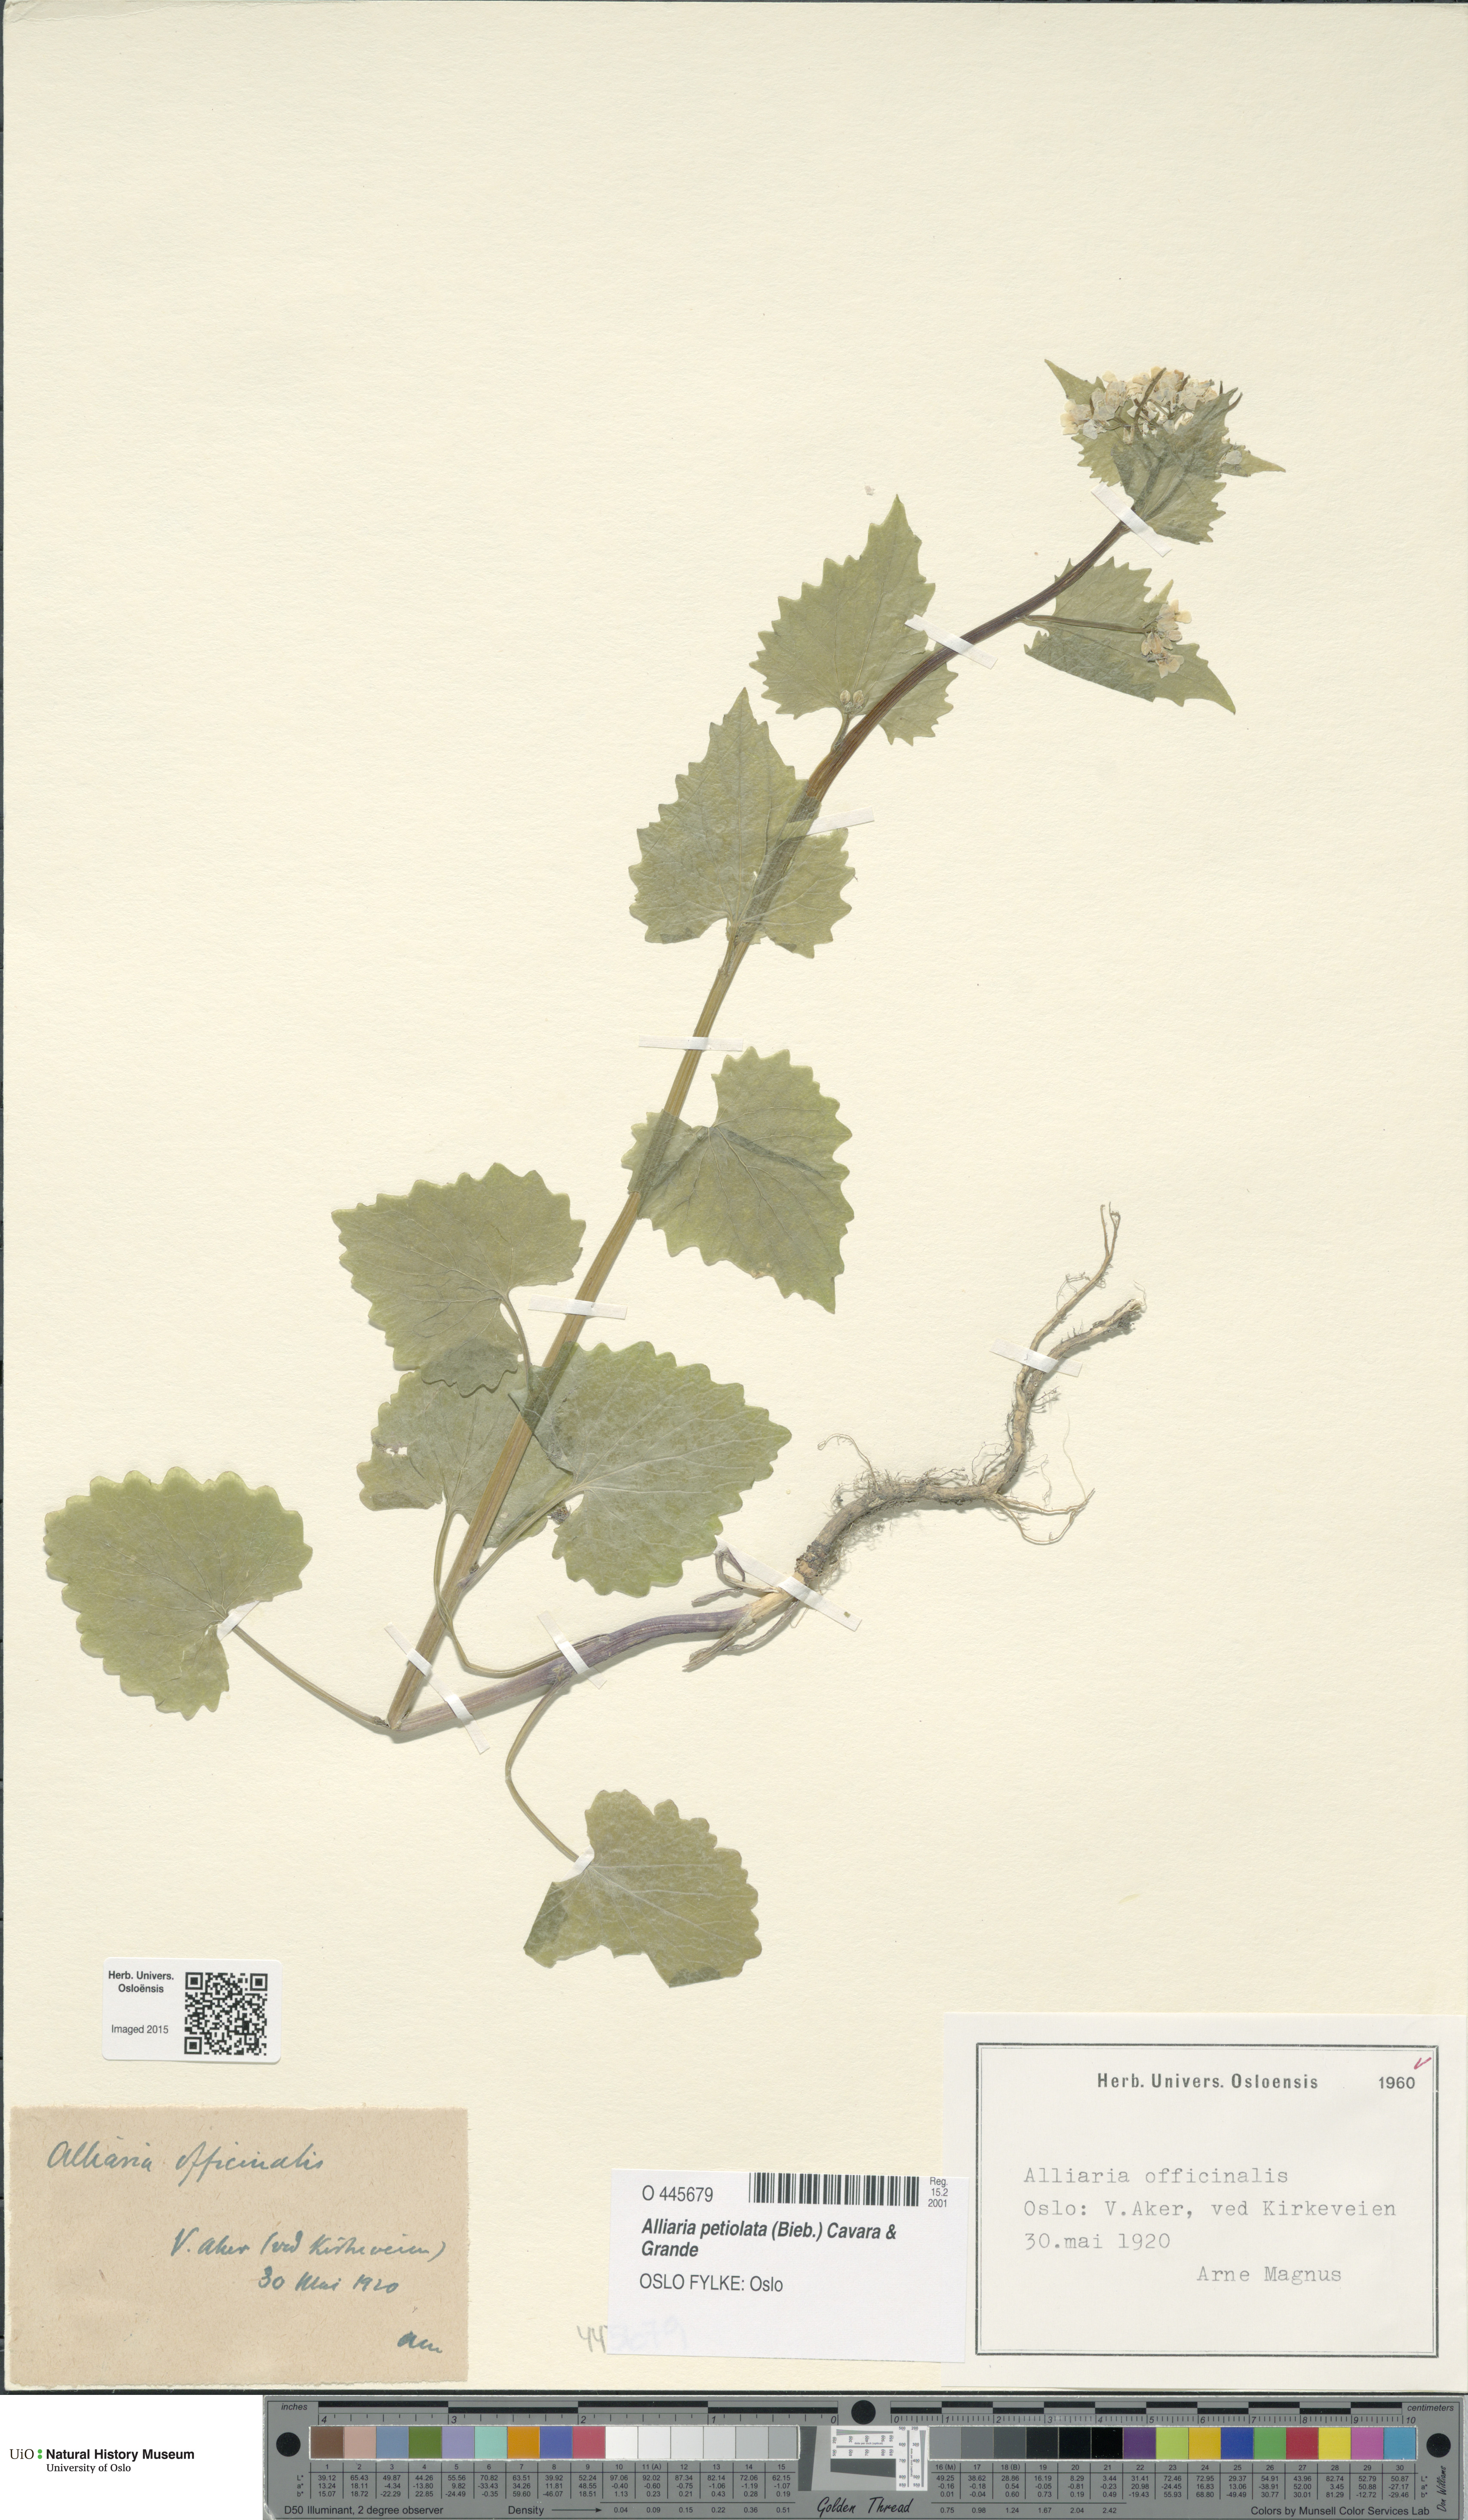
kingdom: Plantae
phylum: Tracheophyta
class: Magnoliopsida
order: Brassicales
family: Brassicaceae
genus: Alliaria
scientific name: Alliaria petiolata
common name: Garlic mustard
